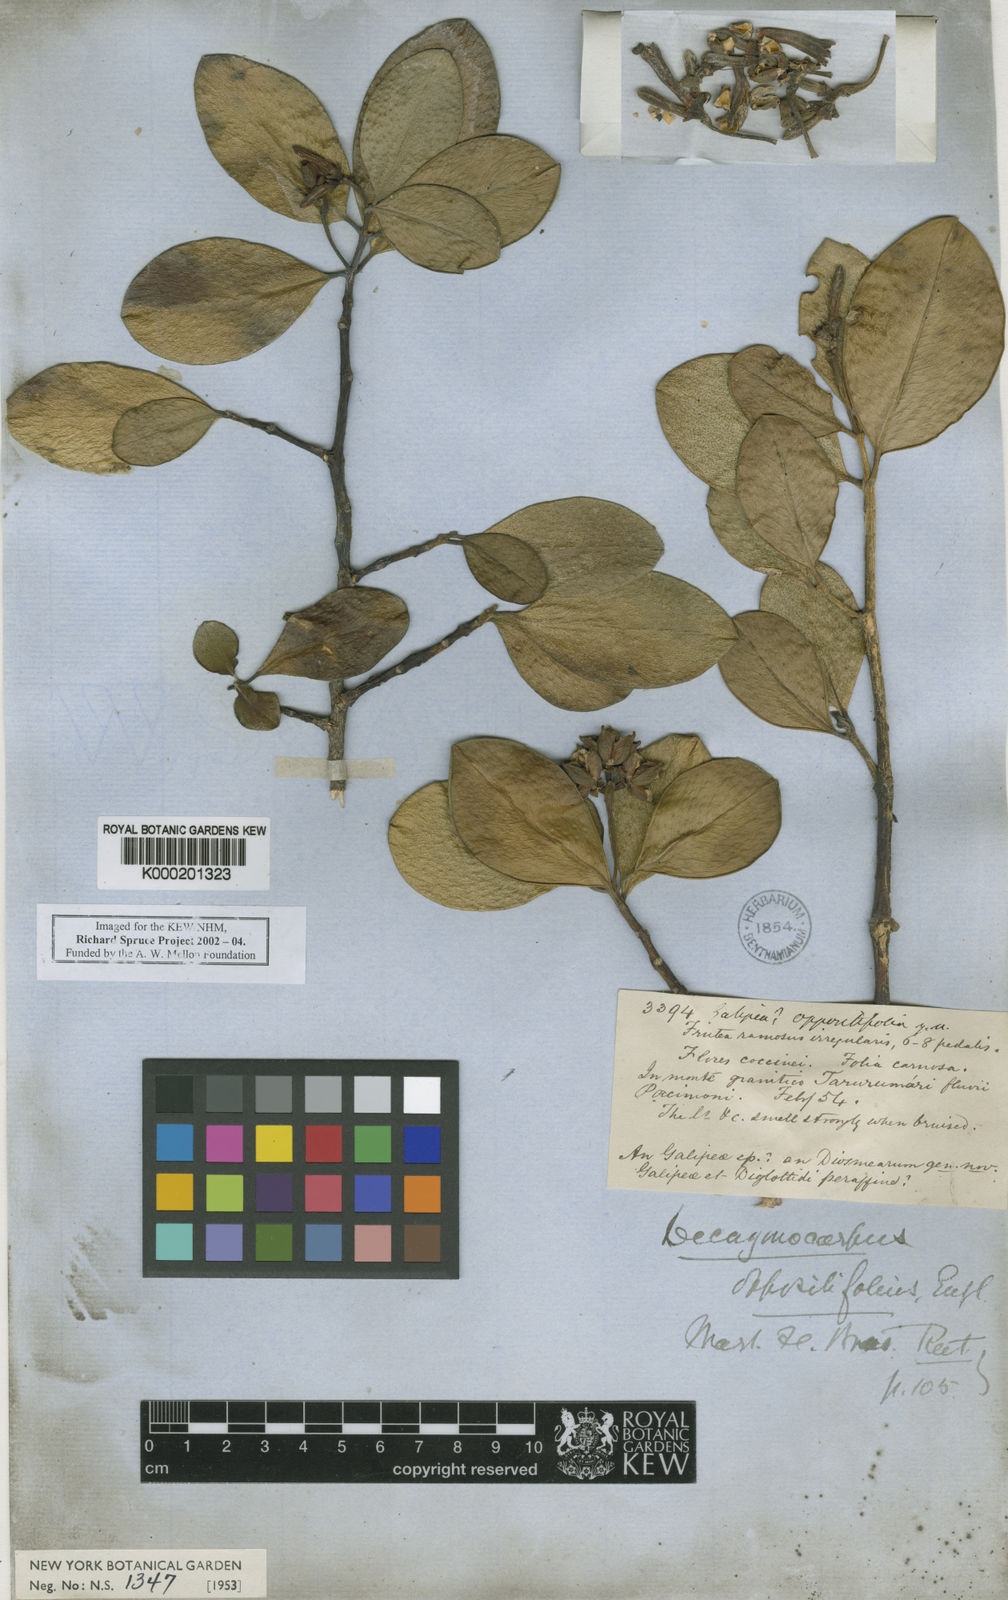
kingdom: Plantae
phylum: Tracheophyta
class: Magnoliopsida
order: Sapindales
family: Rutaceae
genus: Decagonocarpus
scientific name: Decagonocarpus oppositifolius
